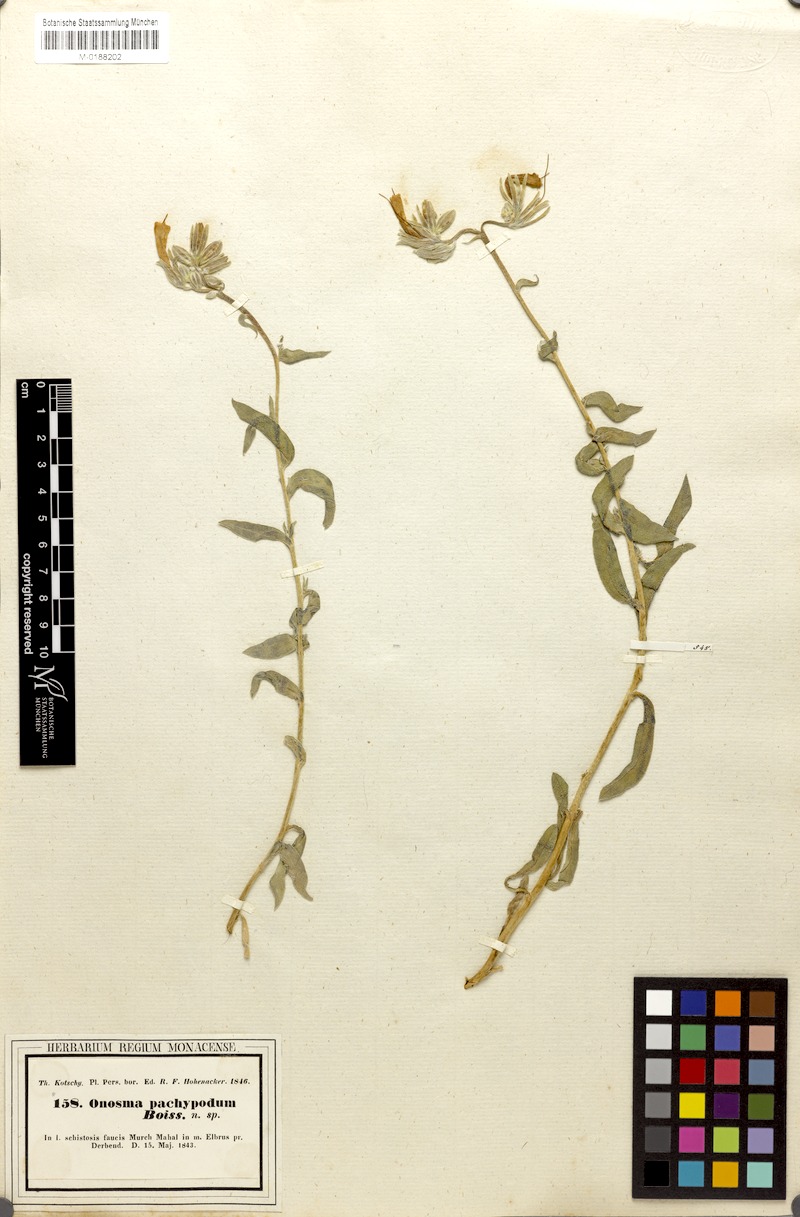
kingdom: Plantae
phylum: Tracheophyta
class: Magnoliopsida
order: Boraginales
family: Boraginaceae
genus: Onosma
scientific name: Onosma pachypoda
